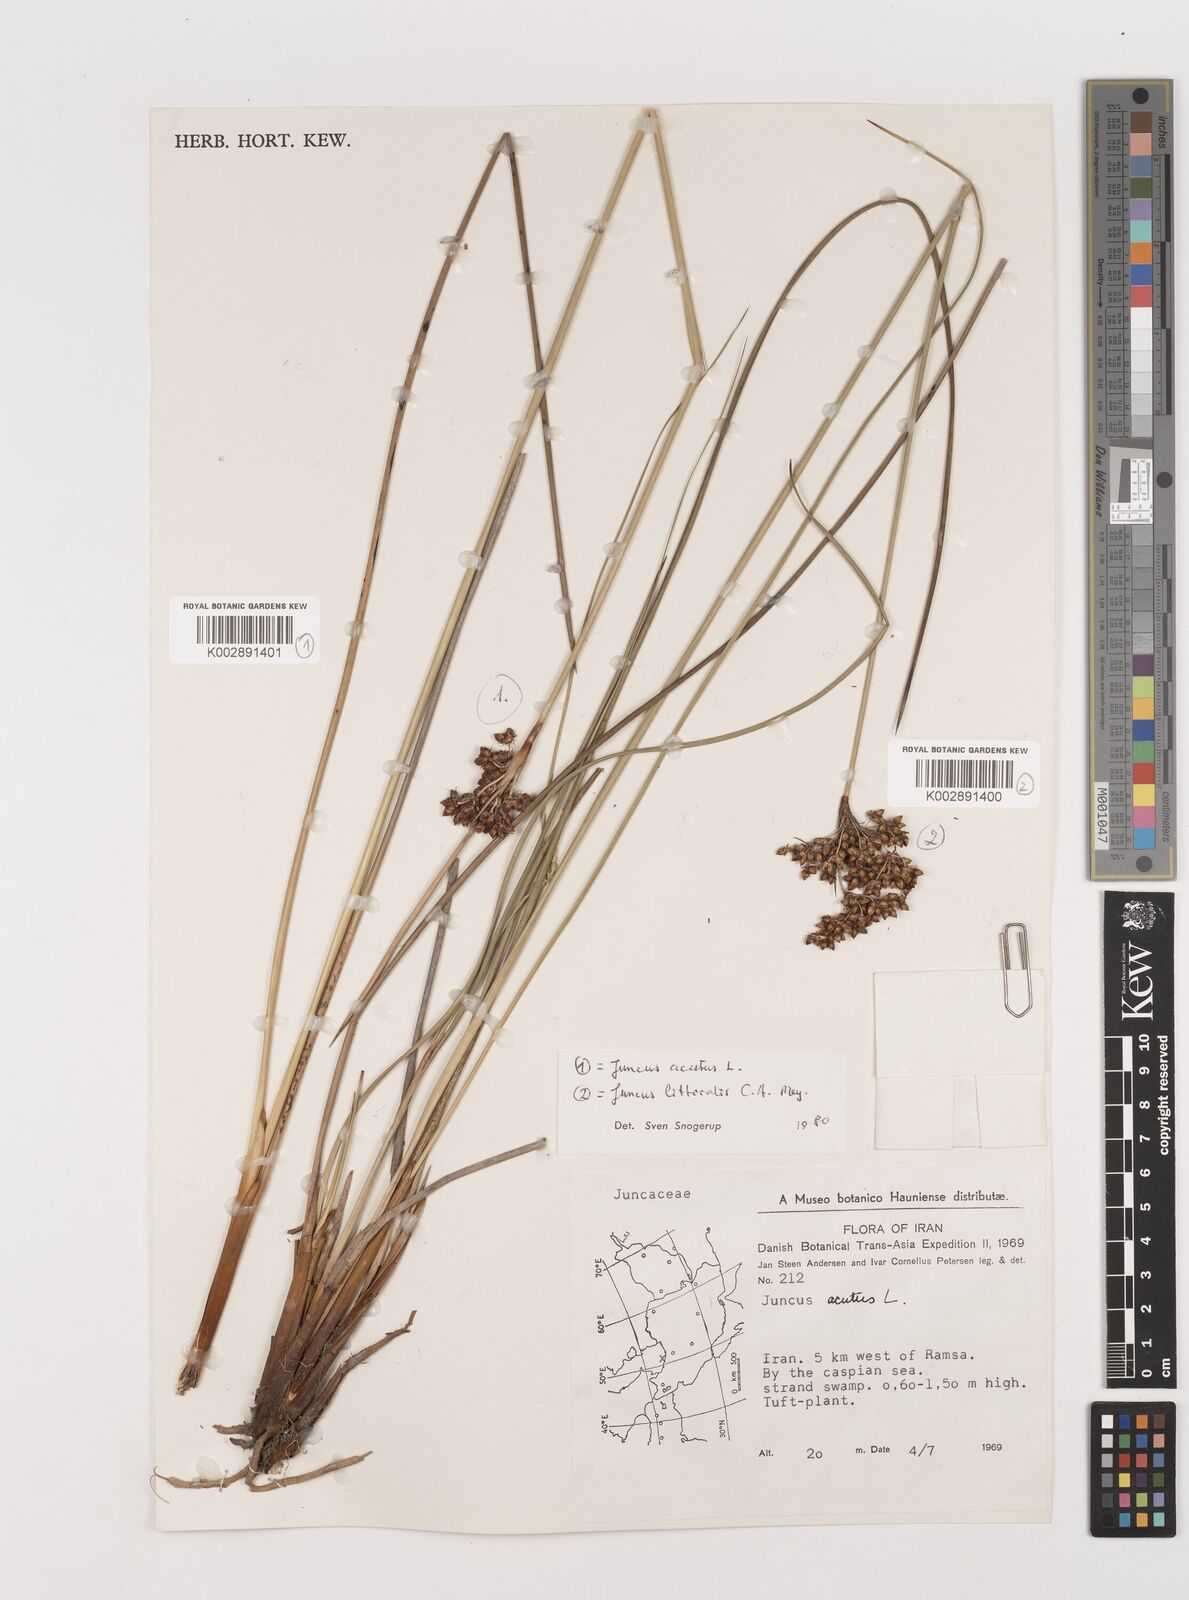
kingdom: Plantae
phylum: Tracheophyta
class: Liliopsida
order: Poales
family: Juncaceae
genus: Juncus
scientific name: Juncus acutus
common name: Sharp rush
